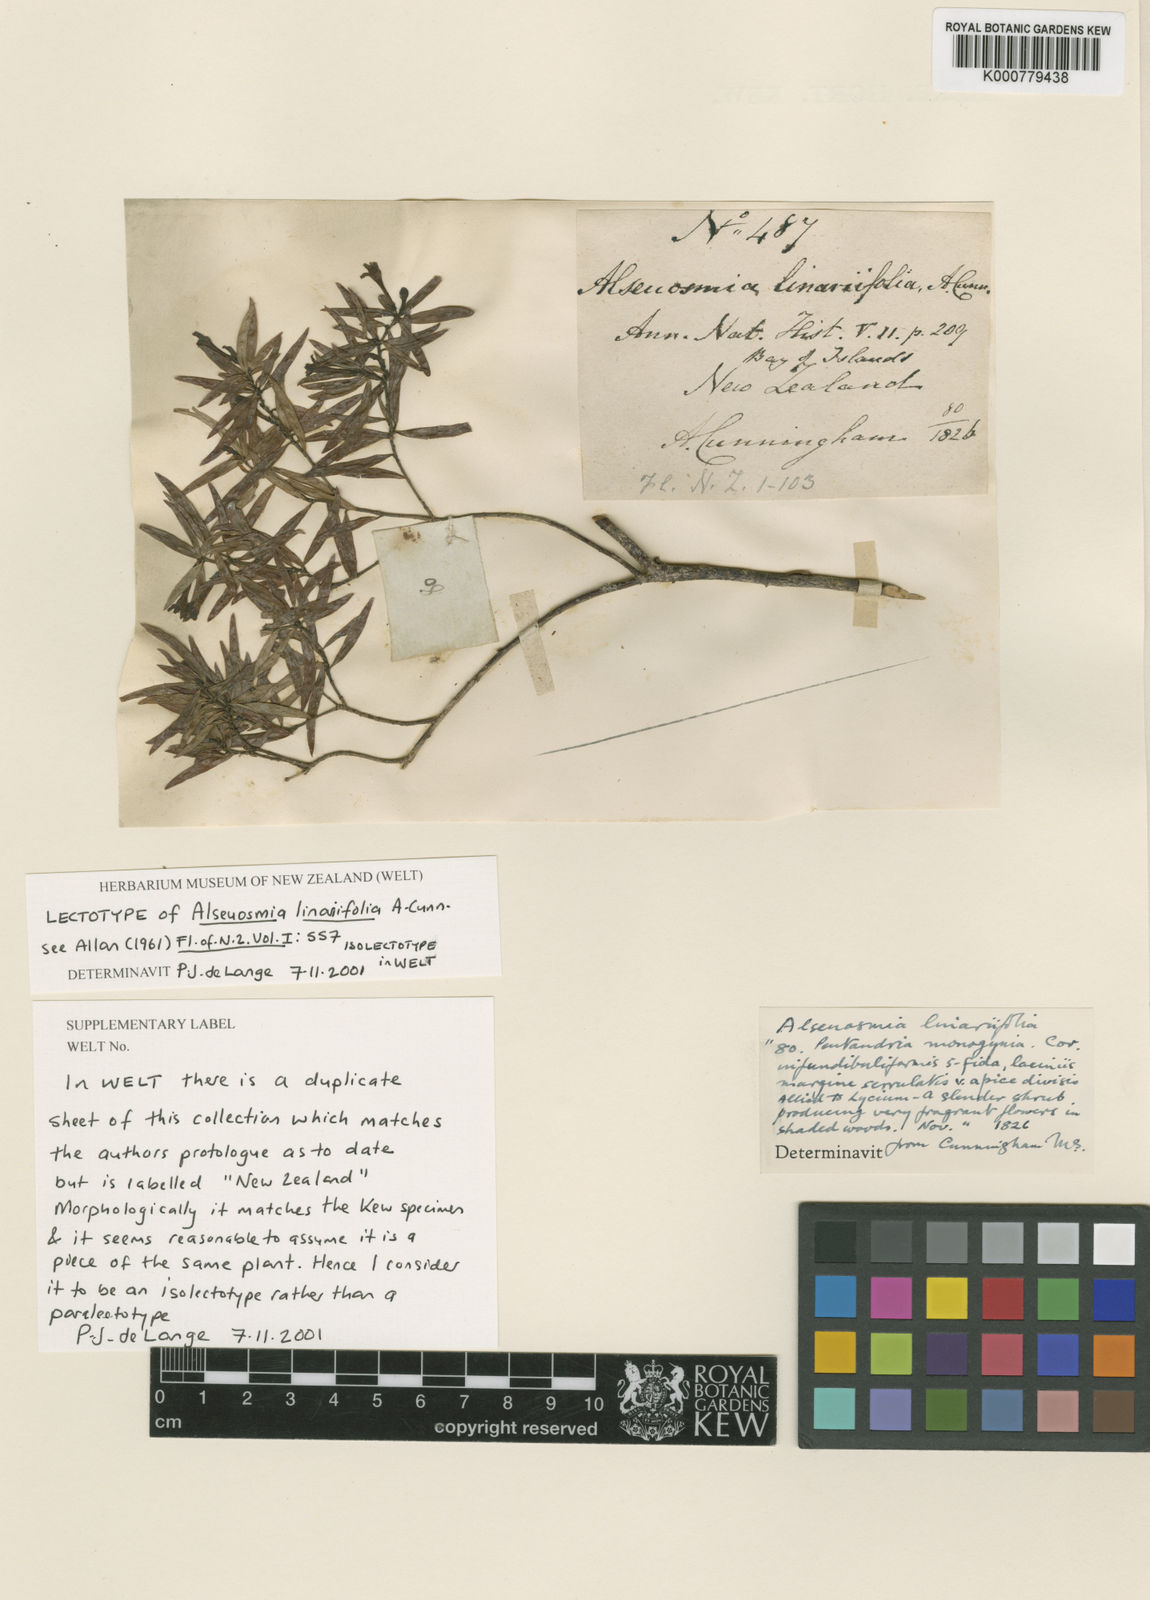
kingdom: Plantae
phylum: Tracheophyta
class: Magnoliopsida
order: Asterales
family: Alseuosmiaceae
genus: Alseuosmia
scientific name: Alseuosmia banksii
